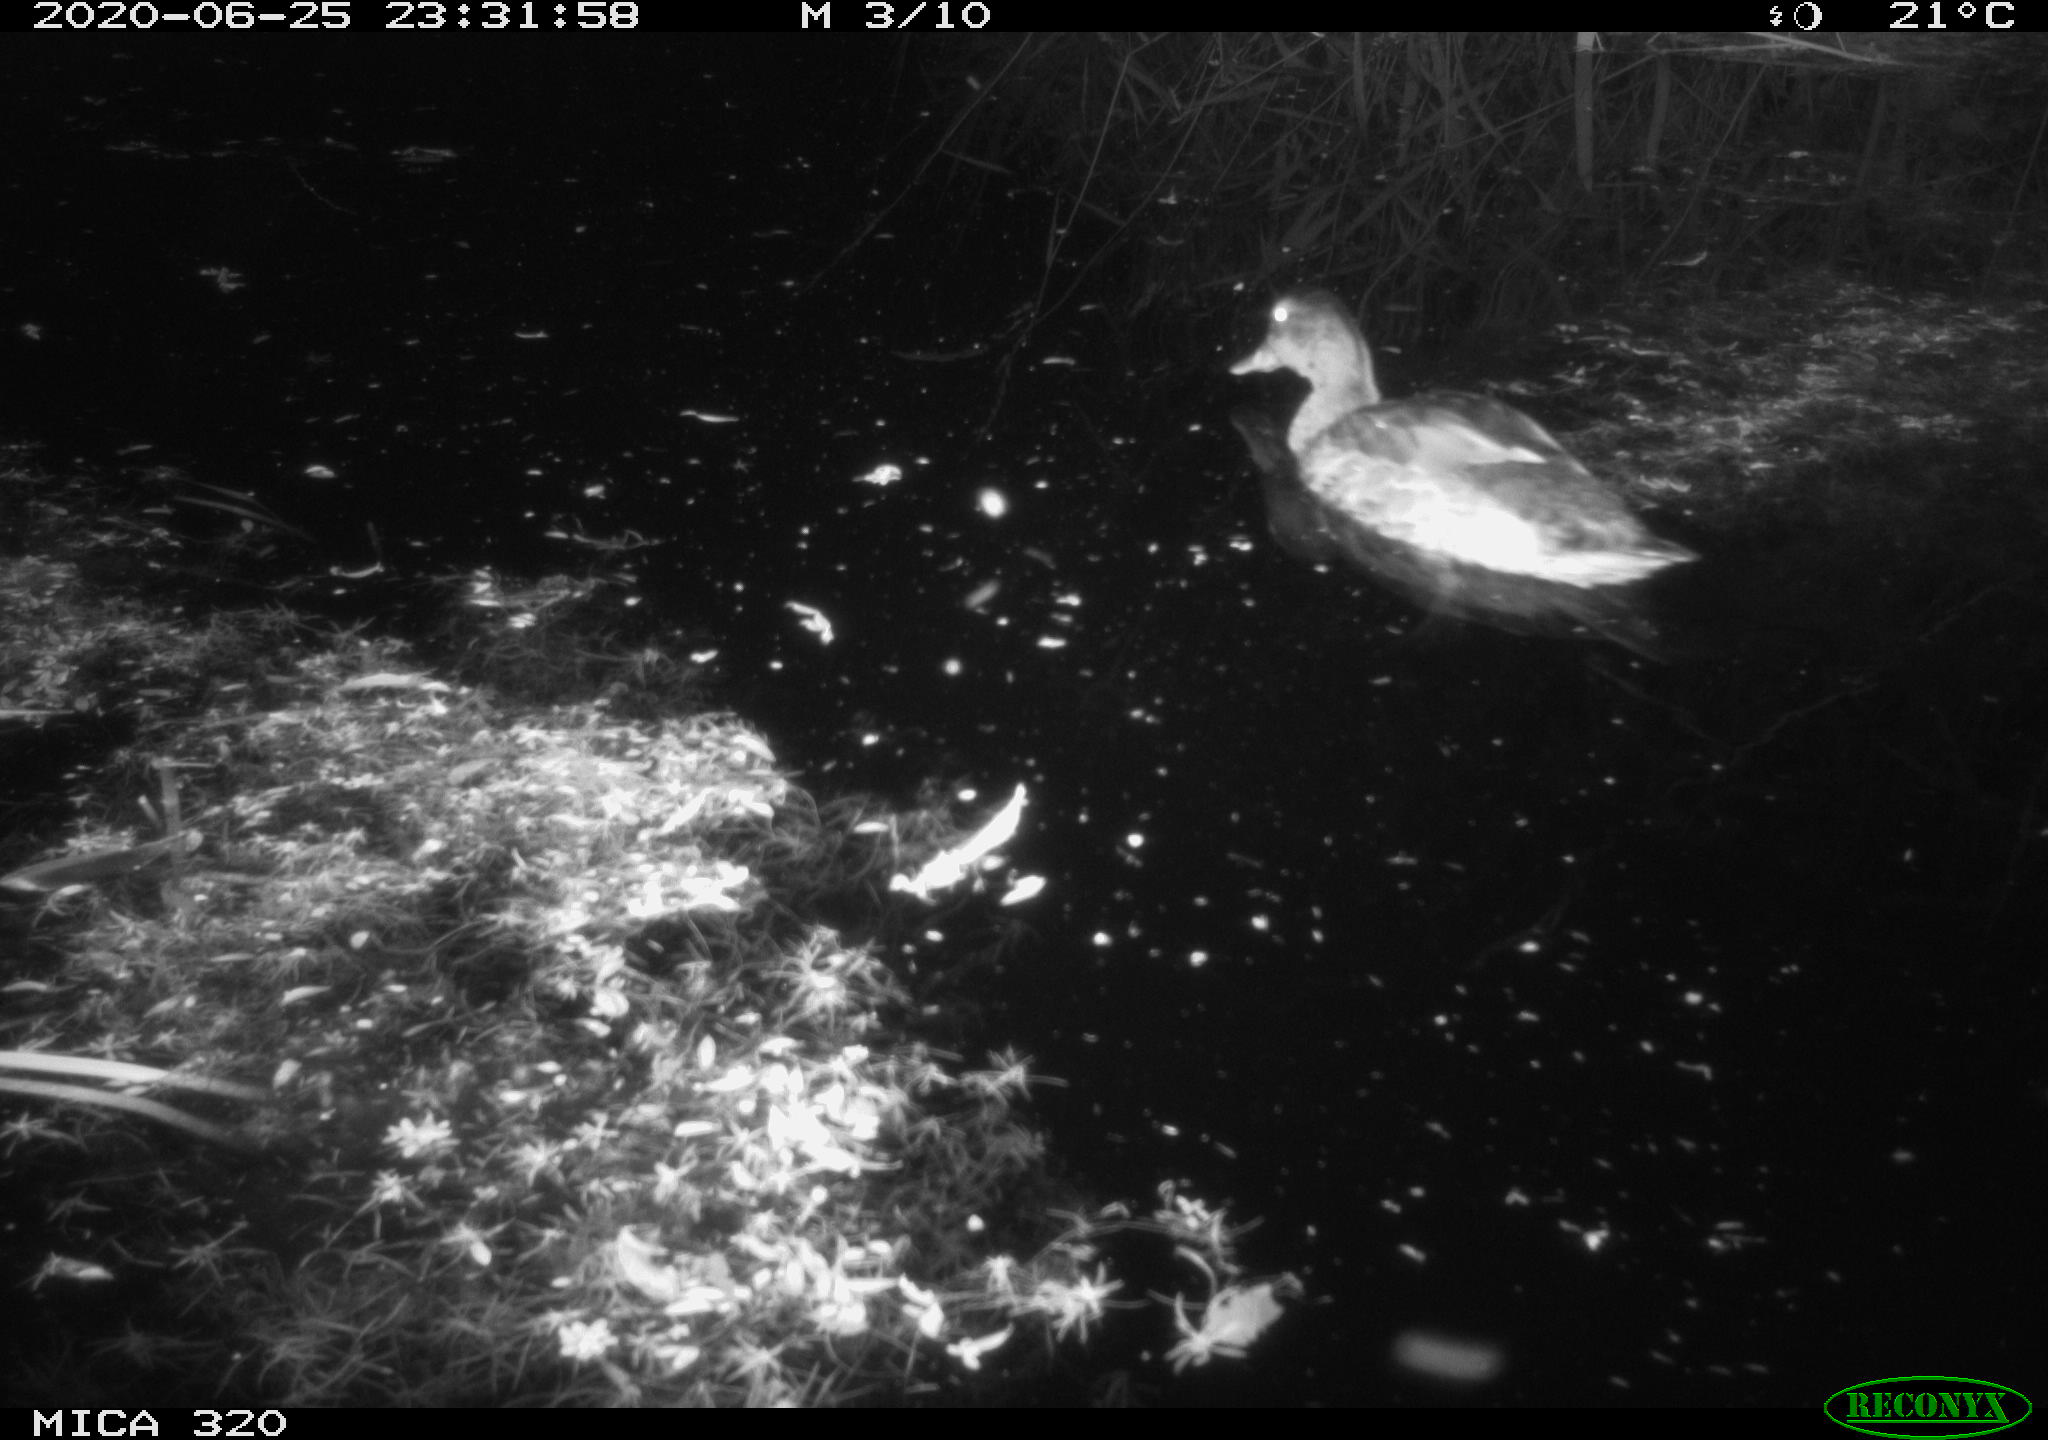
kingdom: Animalia
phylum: Chordata
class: Aves
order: Anseriformes
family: Anatidae
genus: Anas
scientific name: Anas platyrhynchos
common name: Mallard
